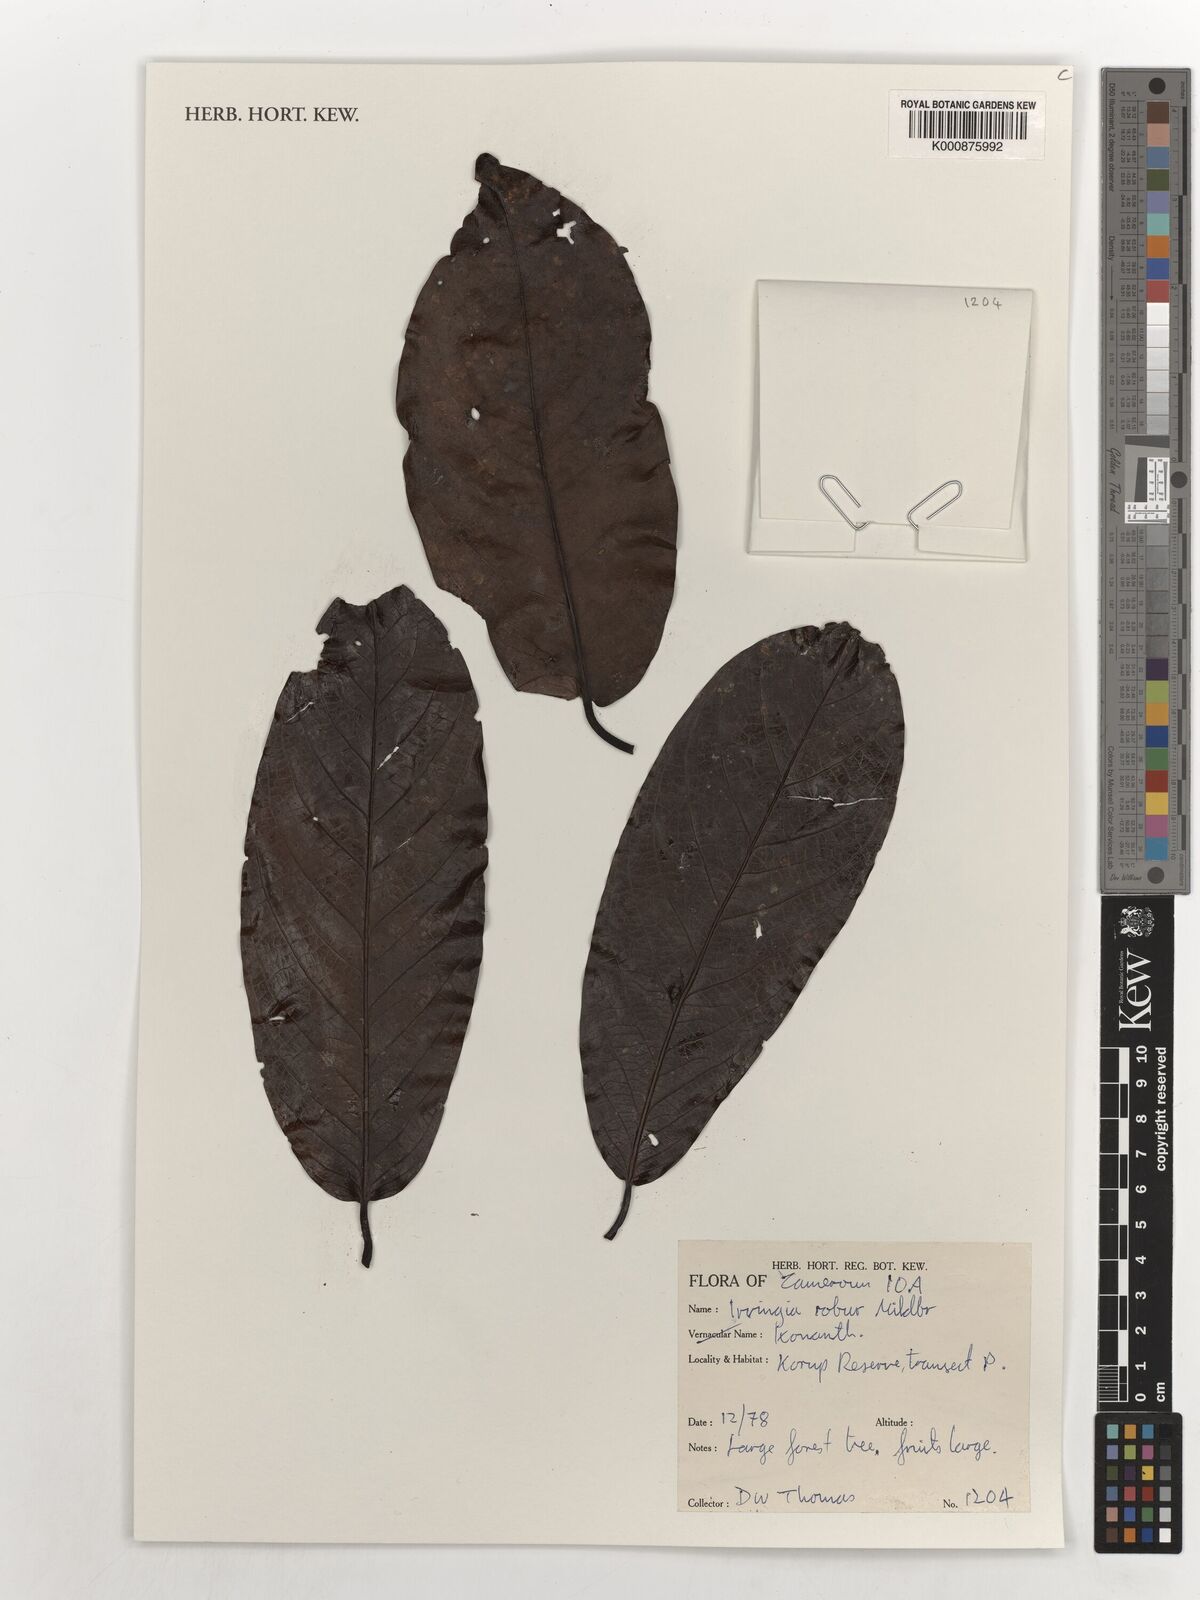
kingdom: Plantae
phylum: Tracheophyta
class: Magnoliopsida
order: Malpighiales
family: Irvingiaceae
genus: Irvingia
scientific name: Irvingia robur
